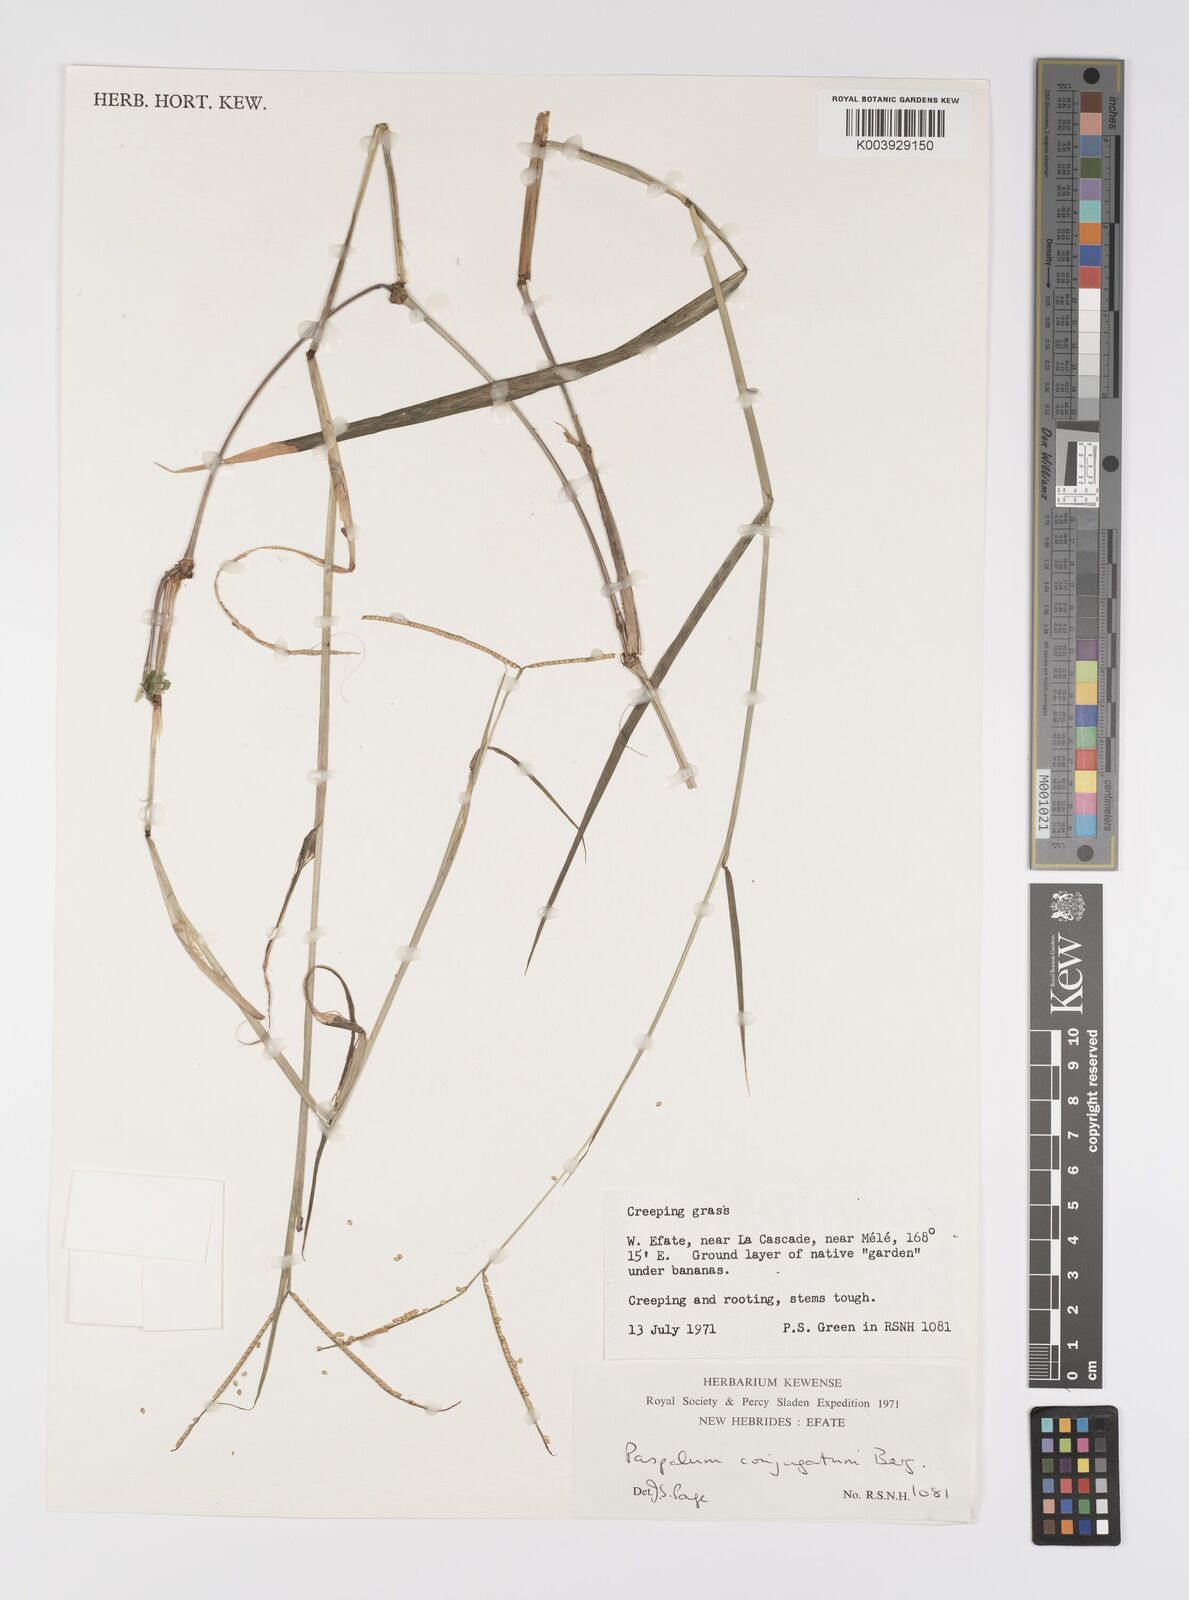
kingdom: Plantae
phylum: Tracheophyta
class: Liliopsida
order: Poales
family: Poaceae
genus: Paspalum
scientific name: Paspalum conjugatum
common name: Hilograss
